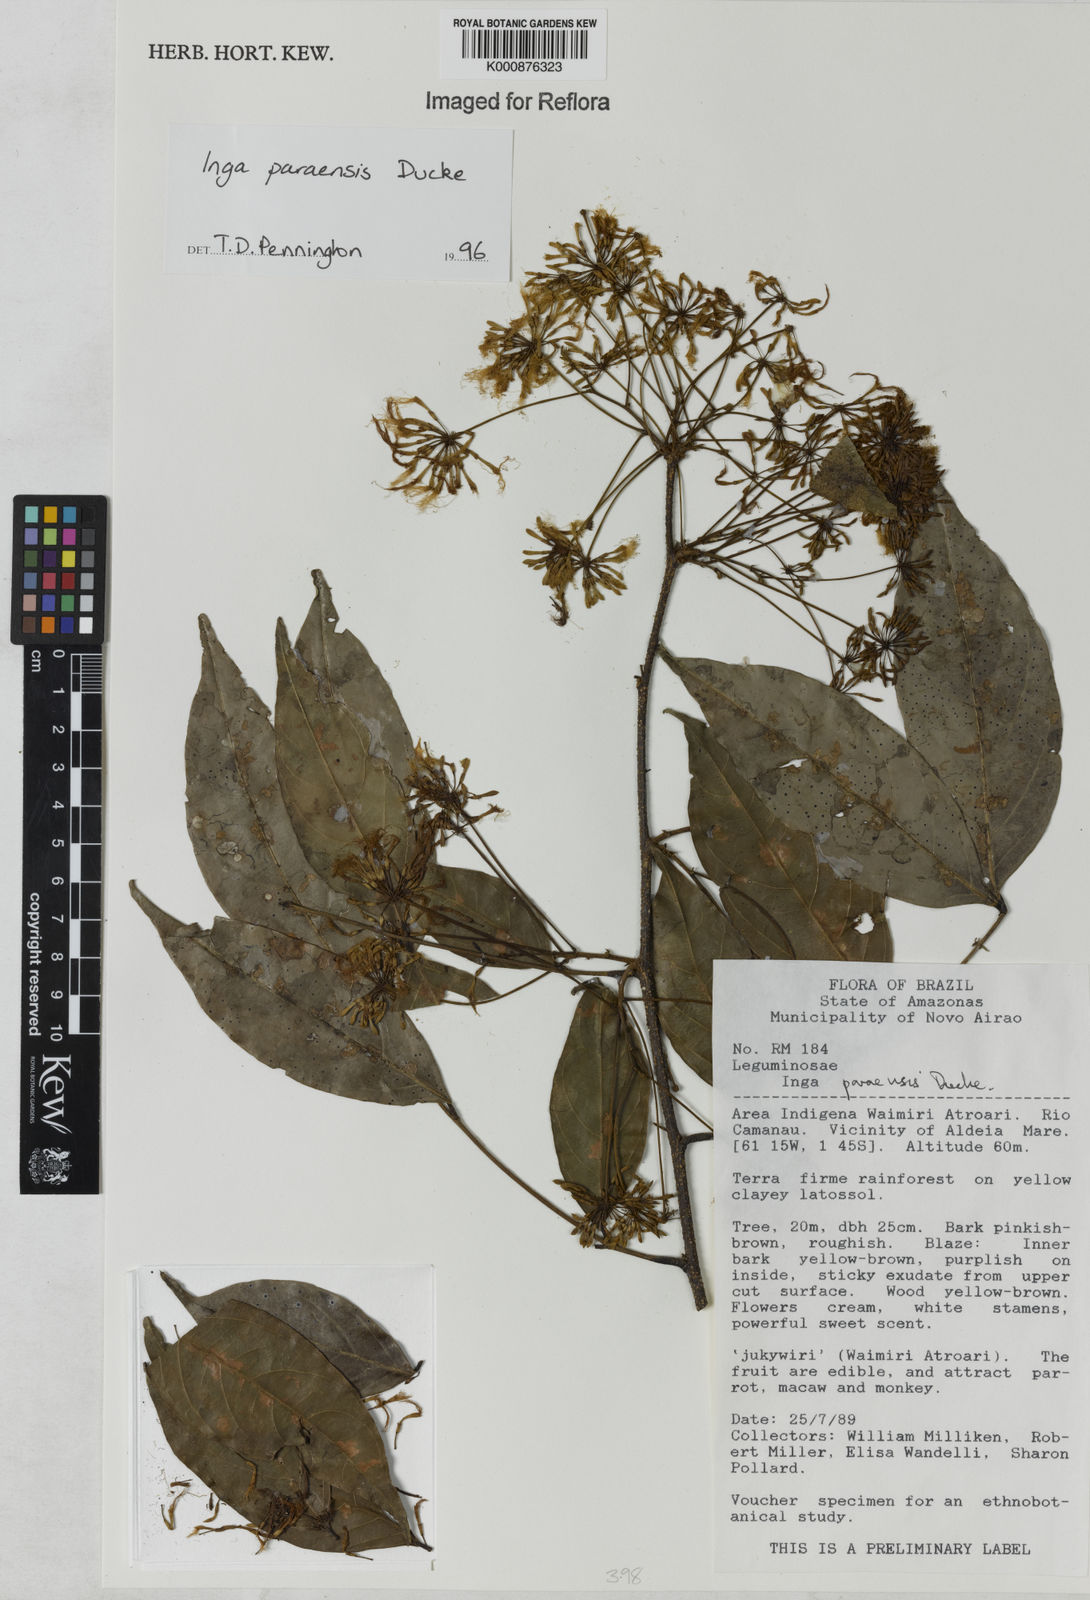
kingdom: Plantae
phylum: Tracheophyta
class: Magnoliopsida
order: Fabales
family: Fabaceae
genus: Inga
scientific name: Inga paraensis
